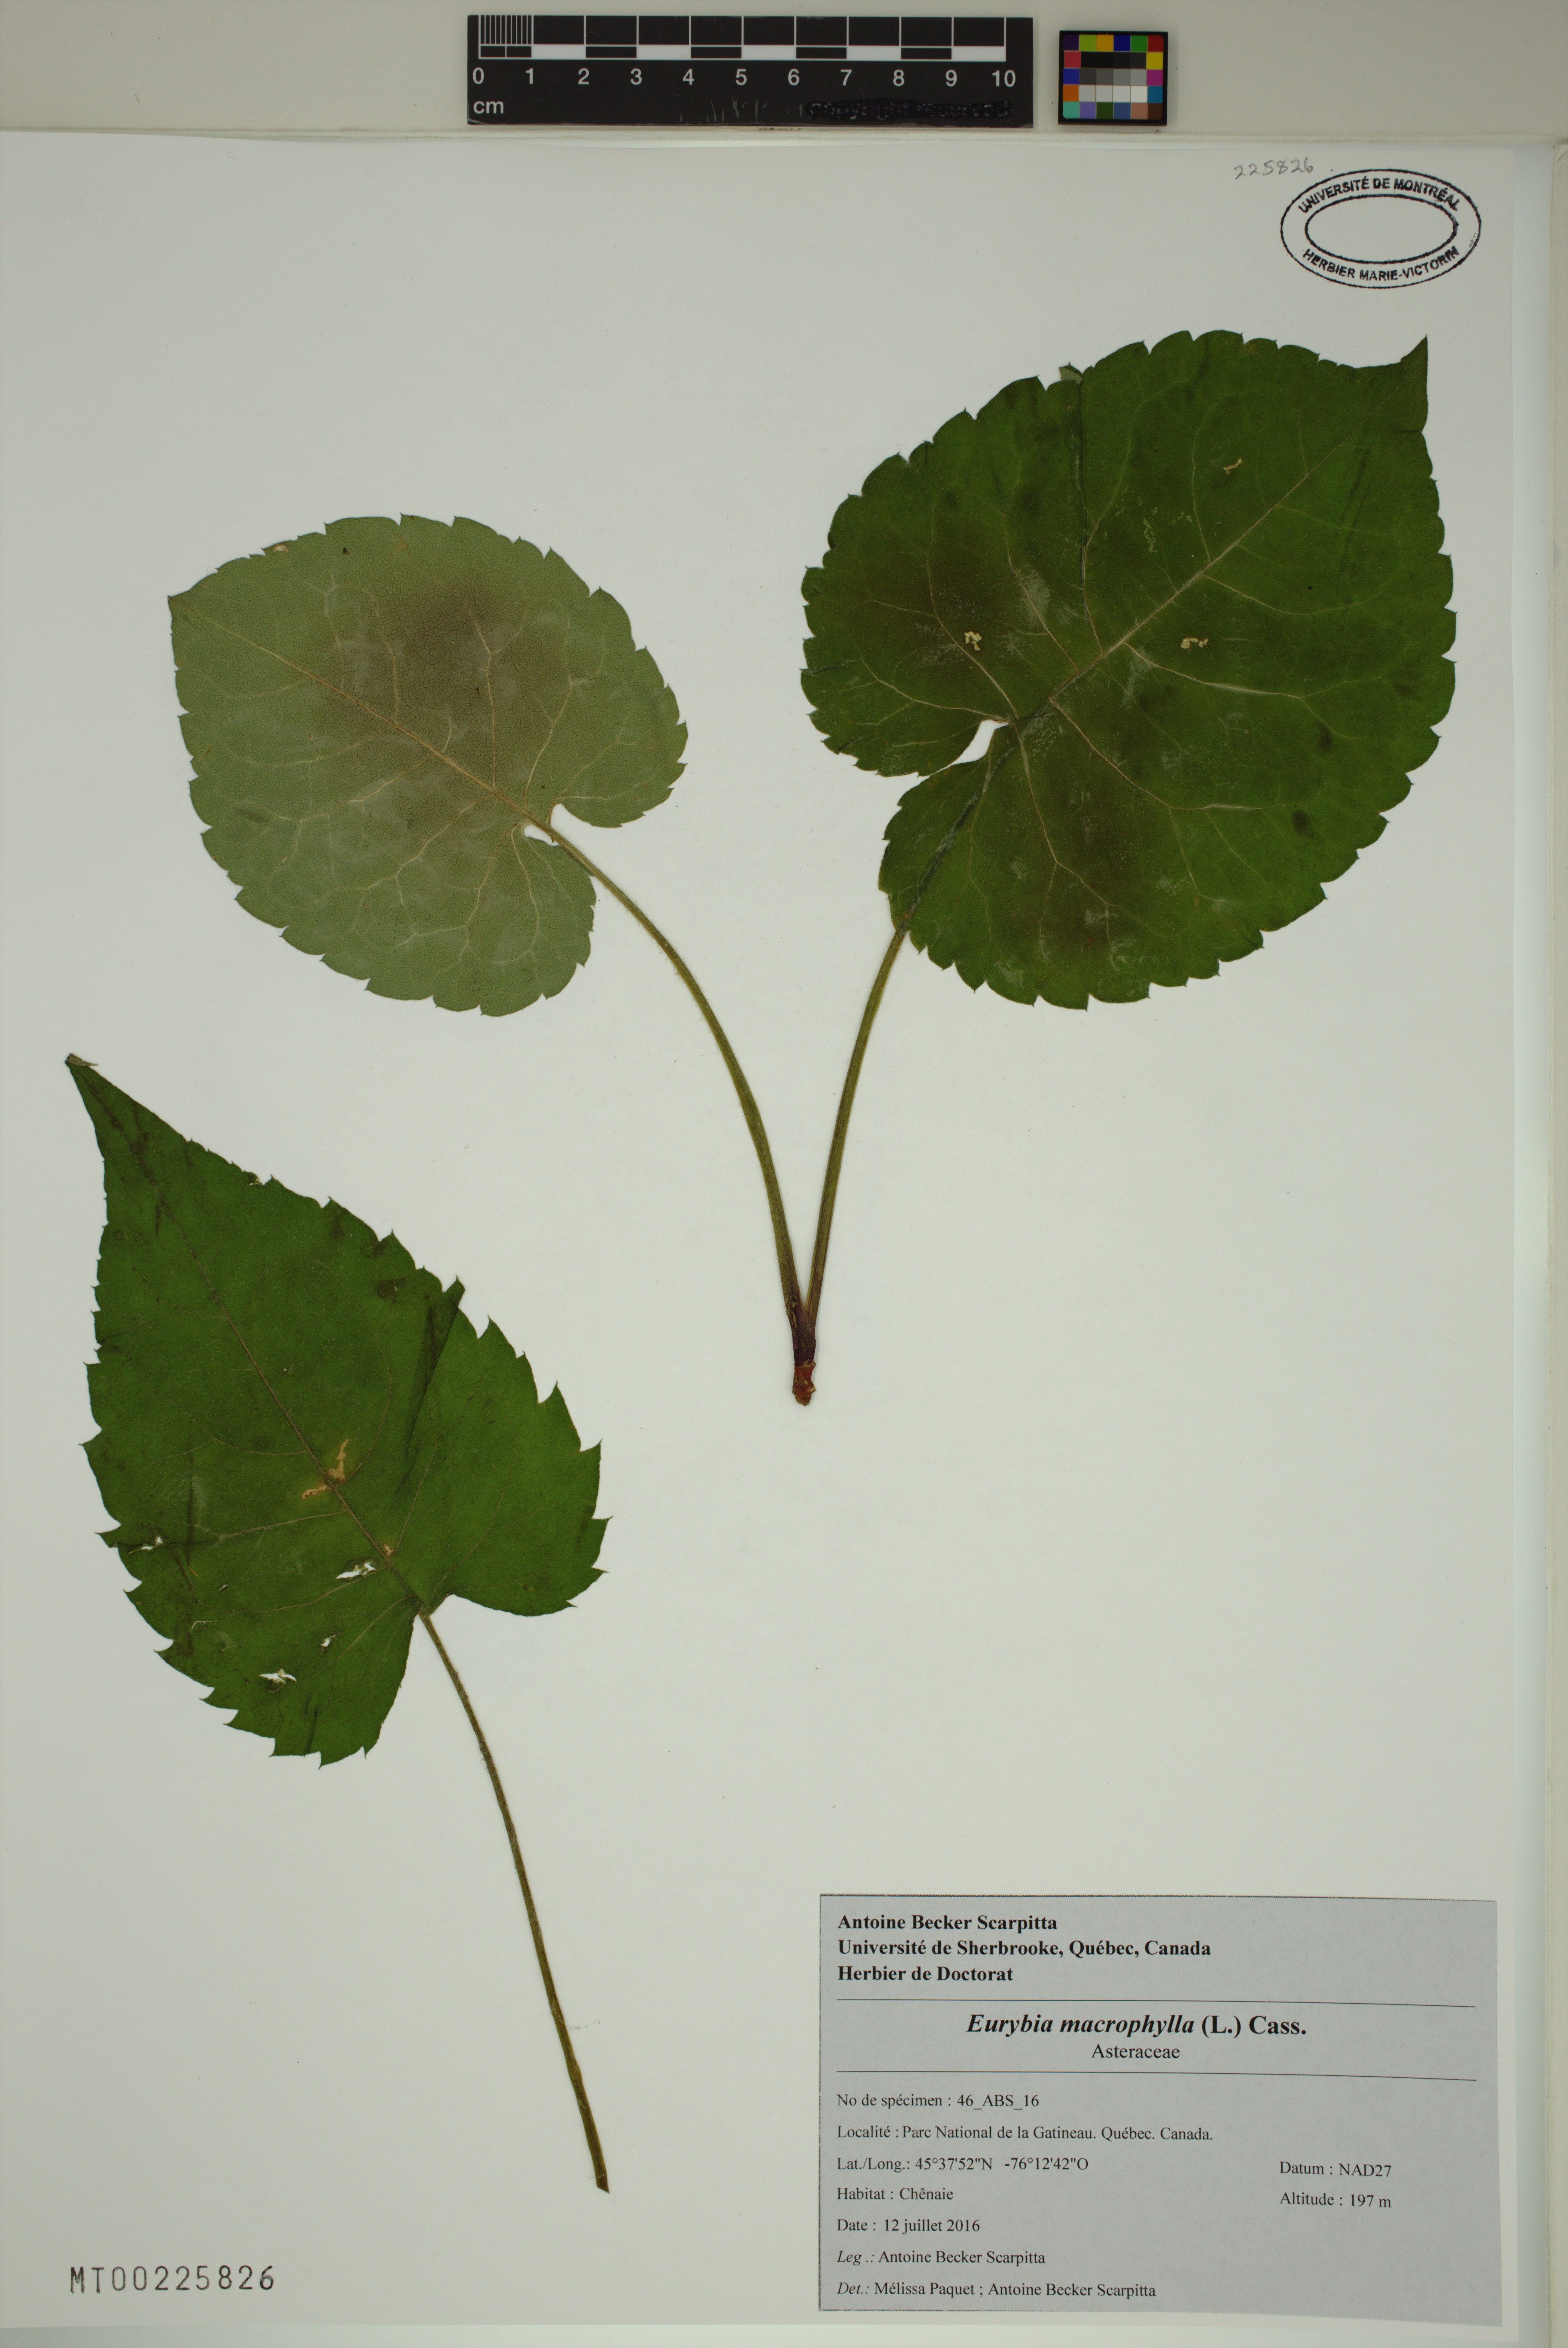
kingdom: Plantae
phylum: Tracheophyta
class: Magnoliopsida
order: Asterales
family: Asteraceae
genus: Eurybia
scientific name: Eurybia macrophylla
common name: Big-leaved aster
